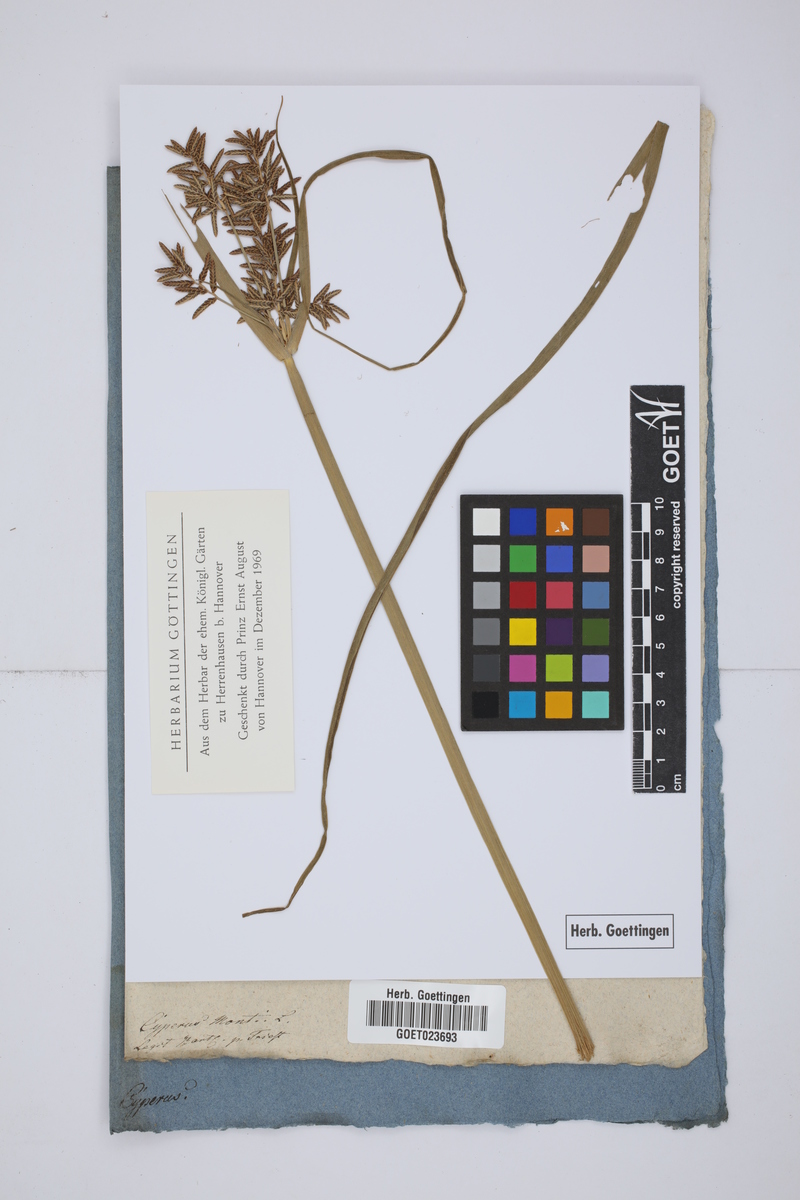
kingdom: Plantae
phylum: Tracheophyta
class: Liliopsida
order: Poales
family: Cyperaceae
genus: Cyperus
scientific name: Cyperus serotinus
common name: Tidalmarsh flatsedge
